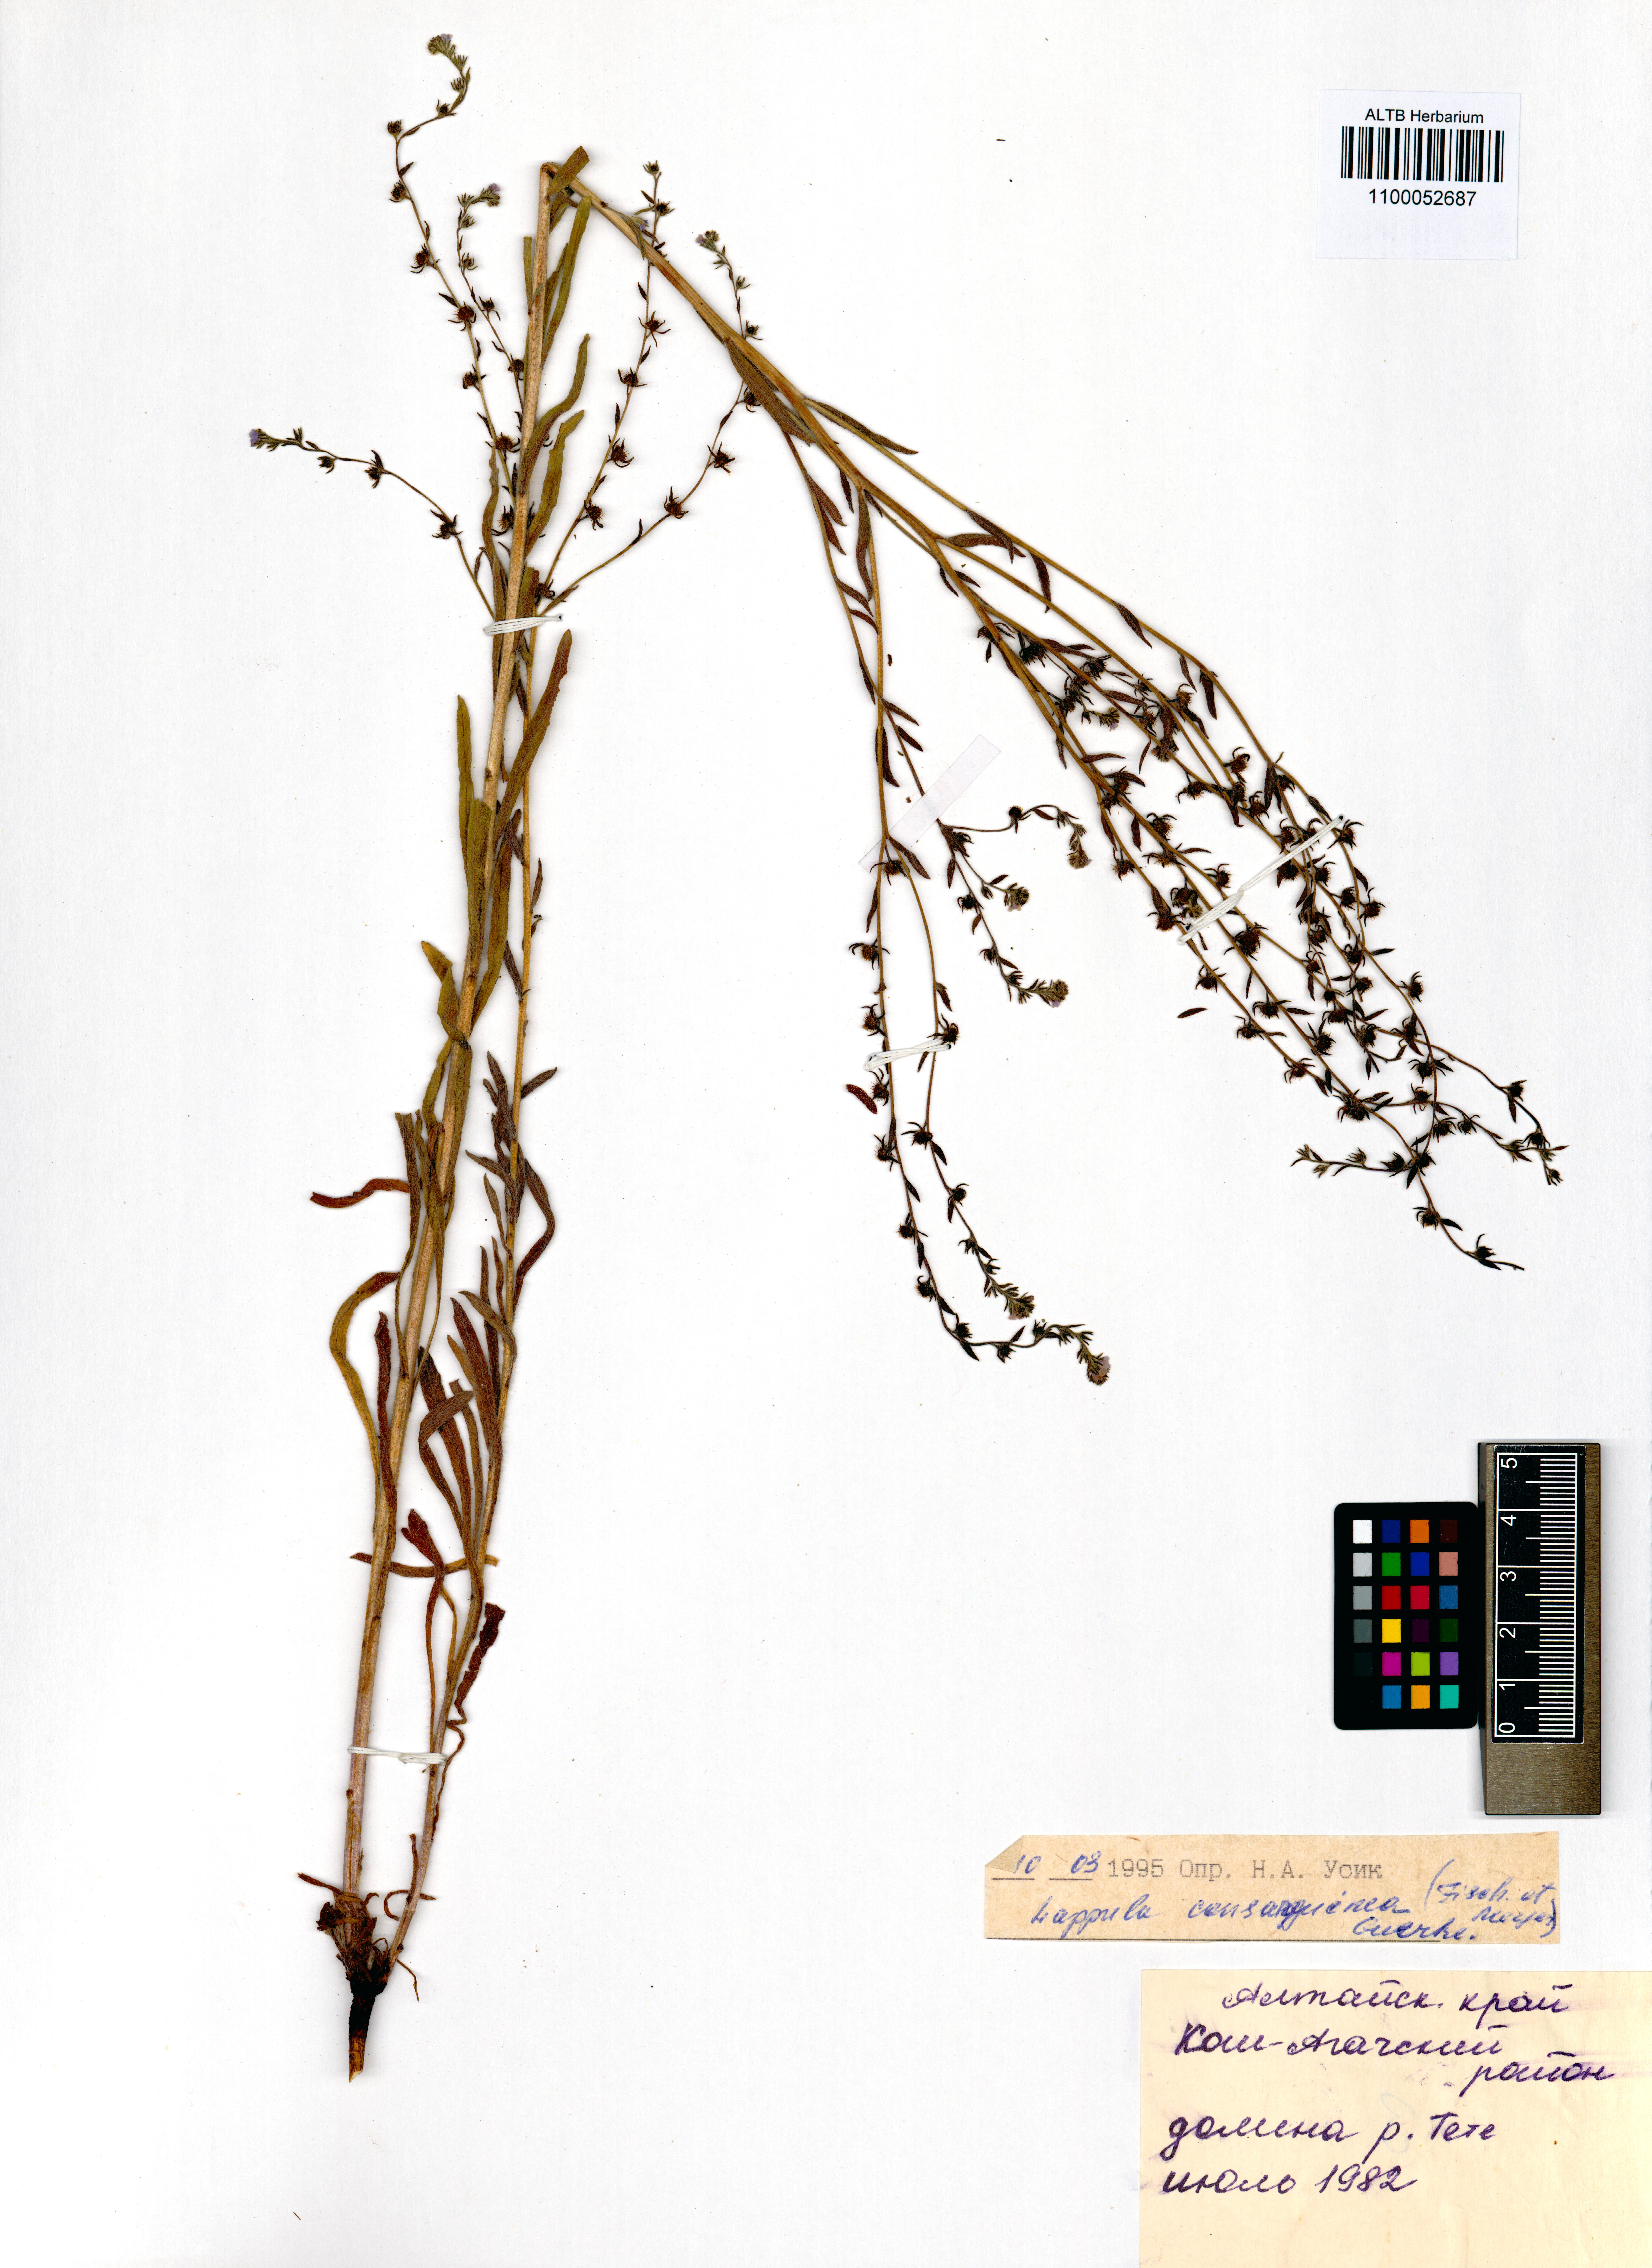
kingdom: Plantae
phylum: Tracheophyta
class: Magnoliopsida
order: Boraginales
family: Boraginaceae
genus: Lappula
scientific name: Lappula squarrosa
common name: European stickseed
